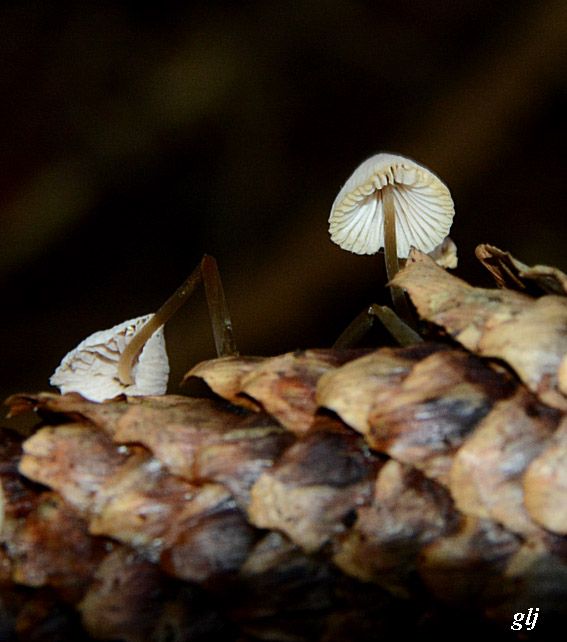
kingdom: Fungi
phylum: Basidiomycota
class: Agaricomycetes
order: Agaricales
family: Mycenaceae
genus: Hemimycena
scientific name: Hemimycena
